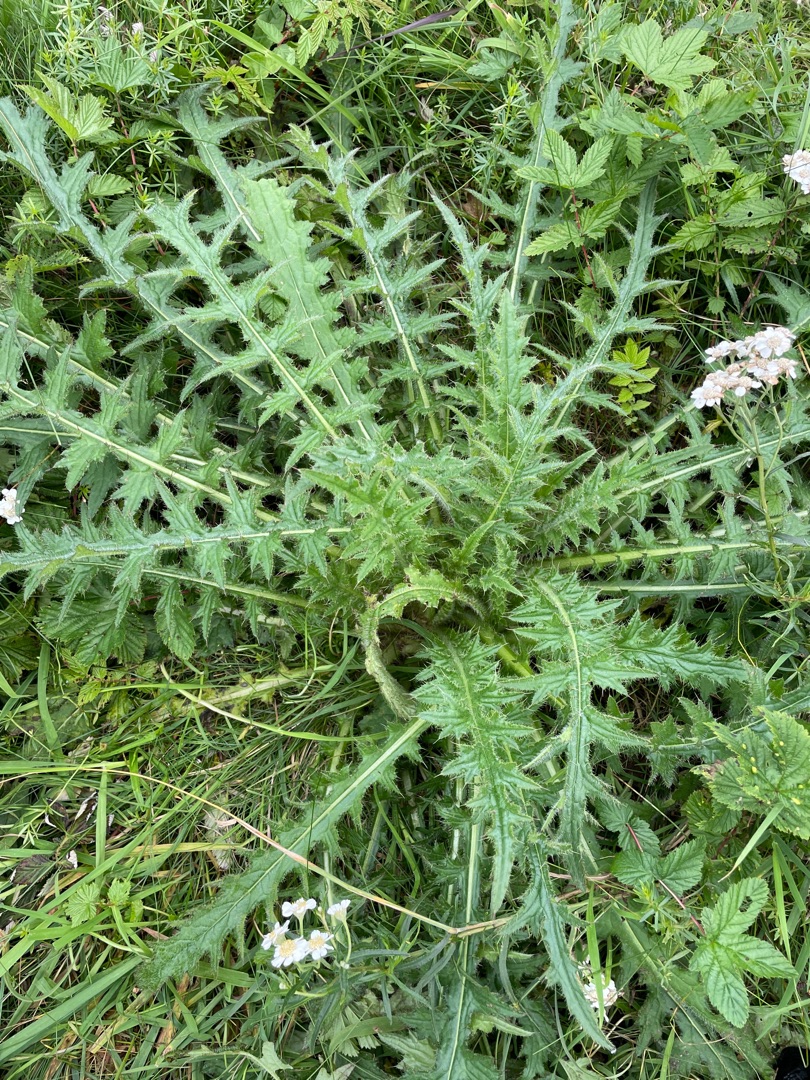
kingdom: Plantae
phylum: Tracheophyta
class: Magnoliopsida
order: Asterales
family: Asteraceae
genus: Cirsium
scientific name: Cirsium palustre
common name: Kær-tidsel
